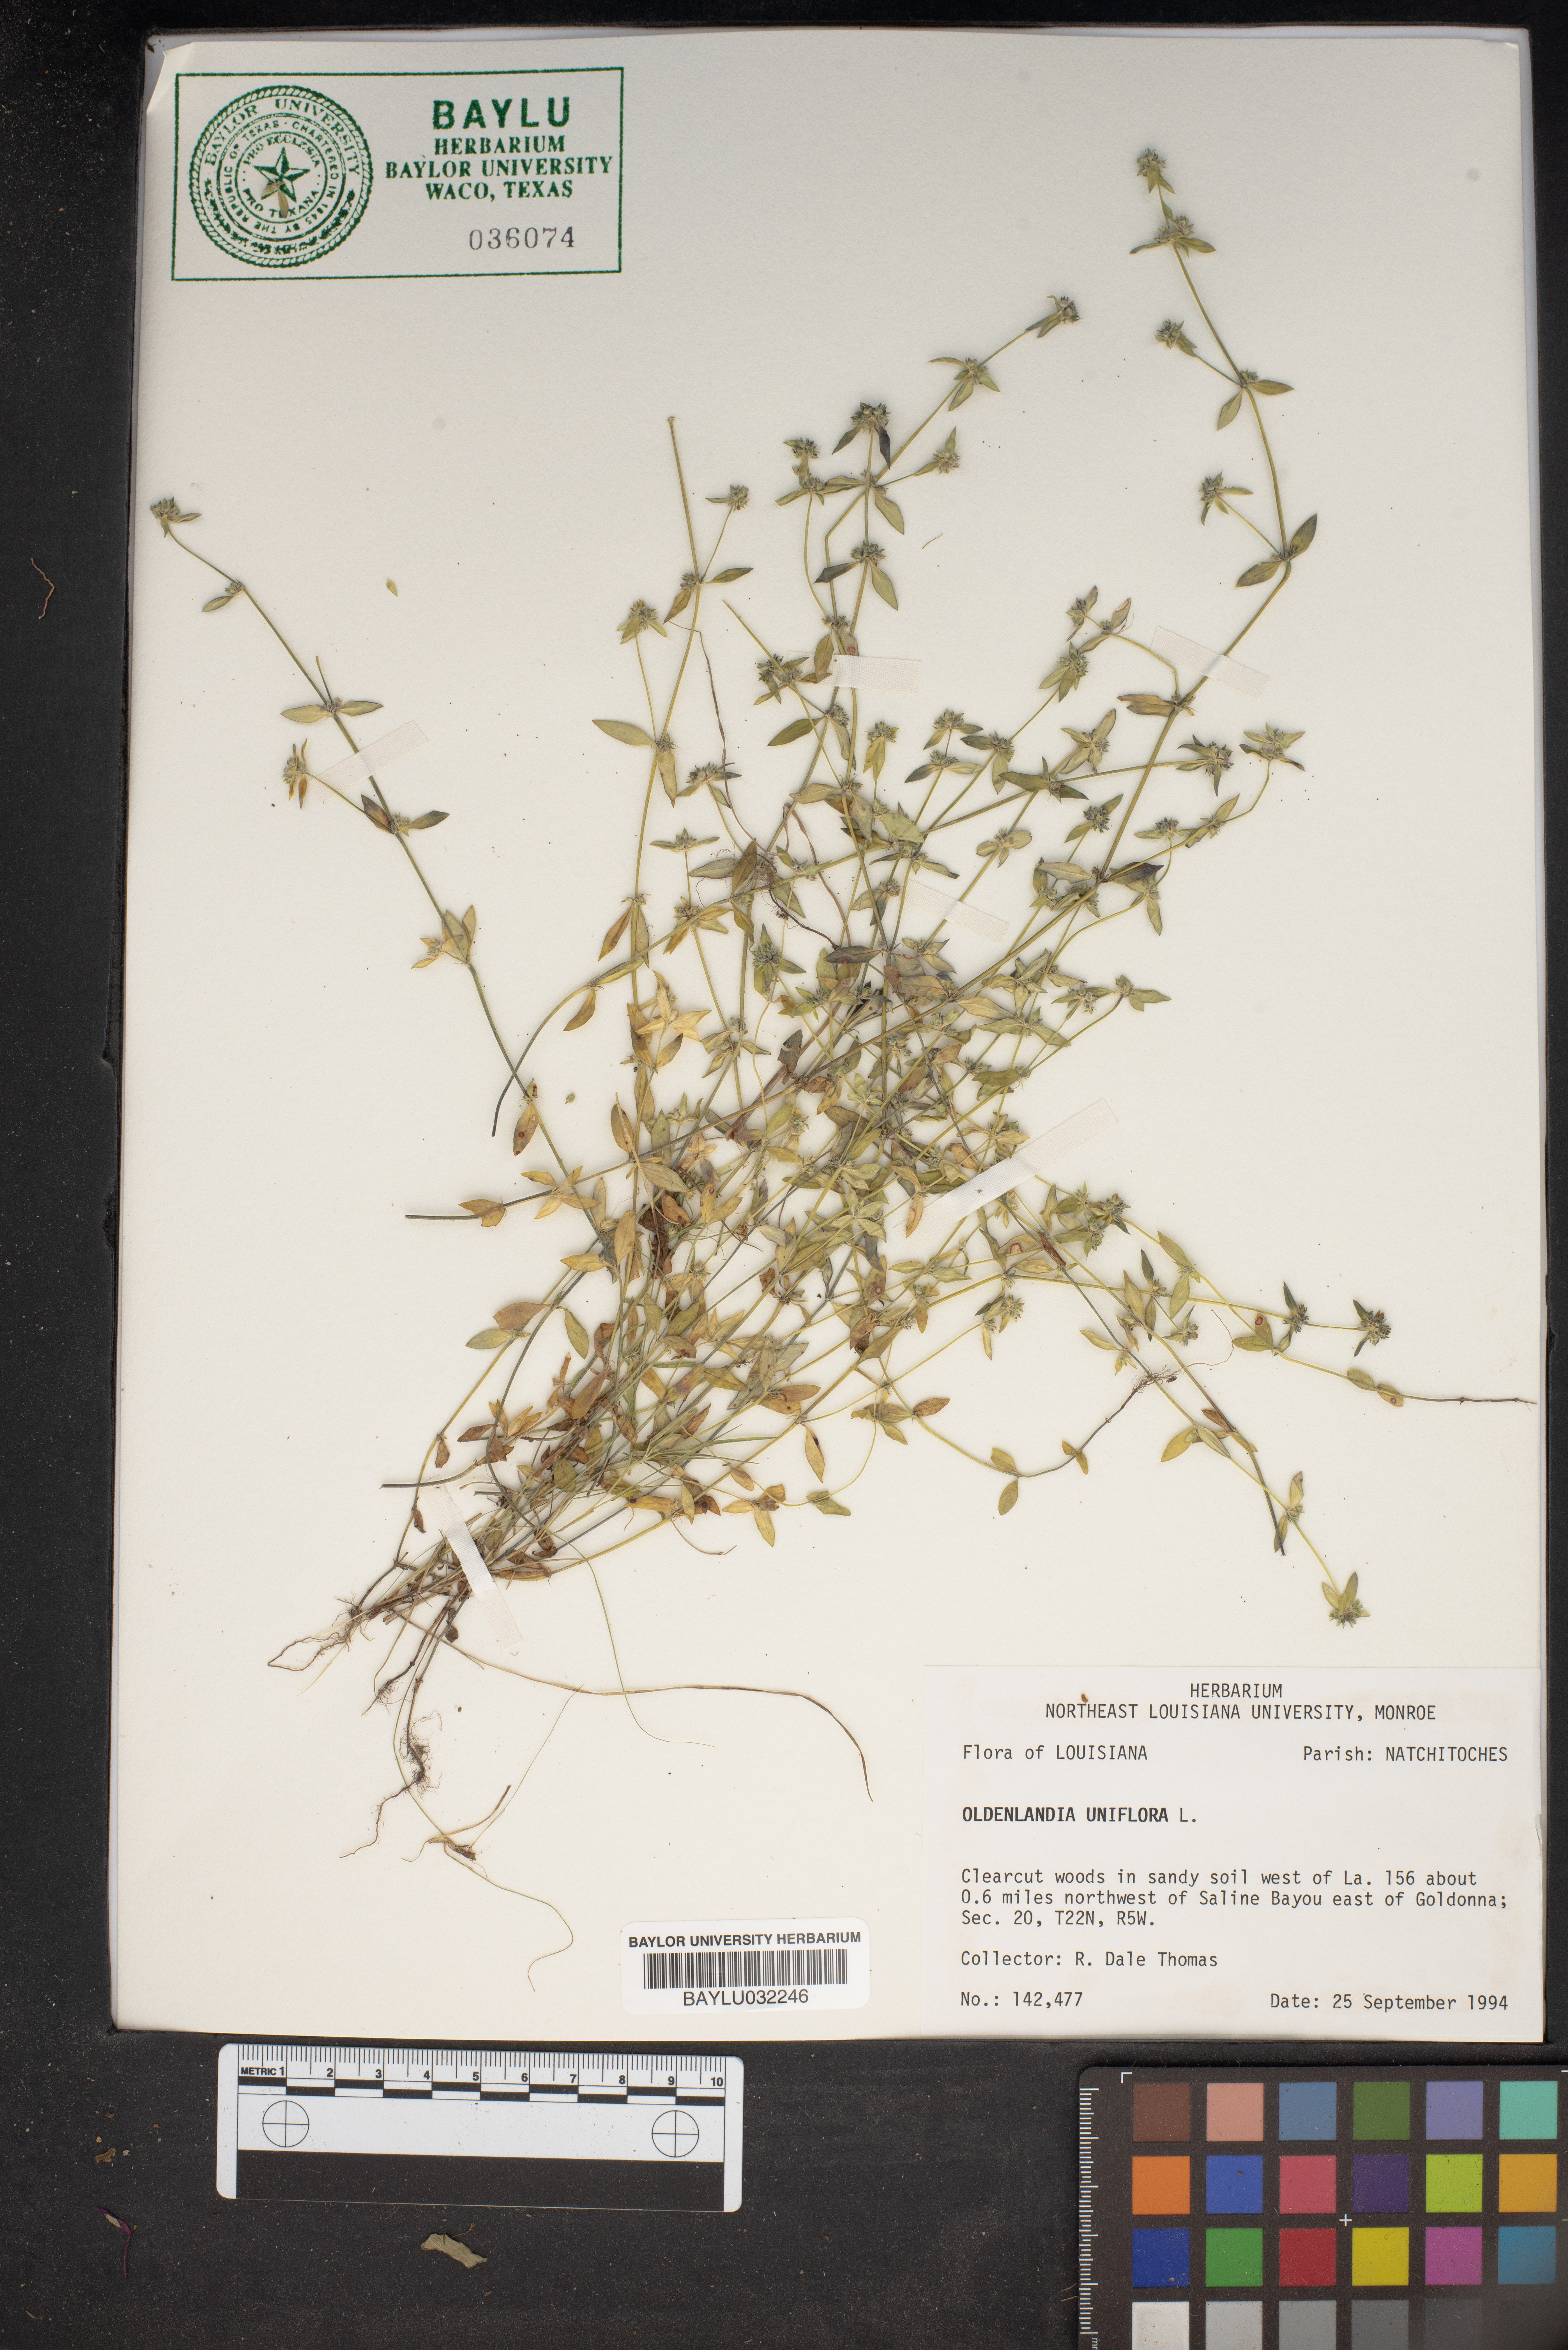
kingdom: Plantae
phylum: Tracheophyta
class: Magnoliopsida
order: Gentianales
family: Rubiaceae
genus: Edrastima
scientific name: Edrastima uniflora
